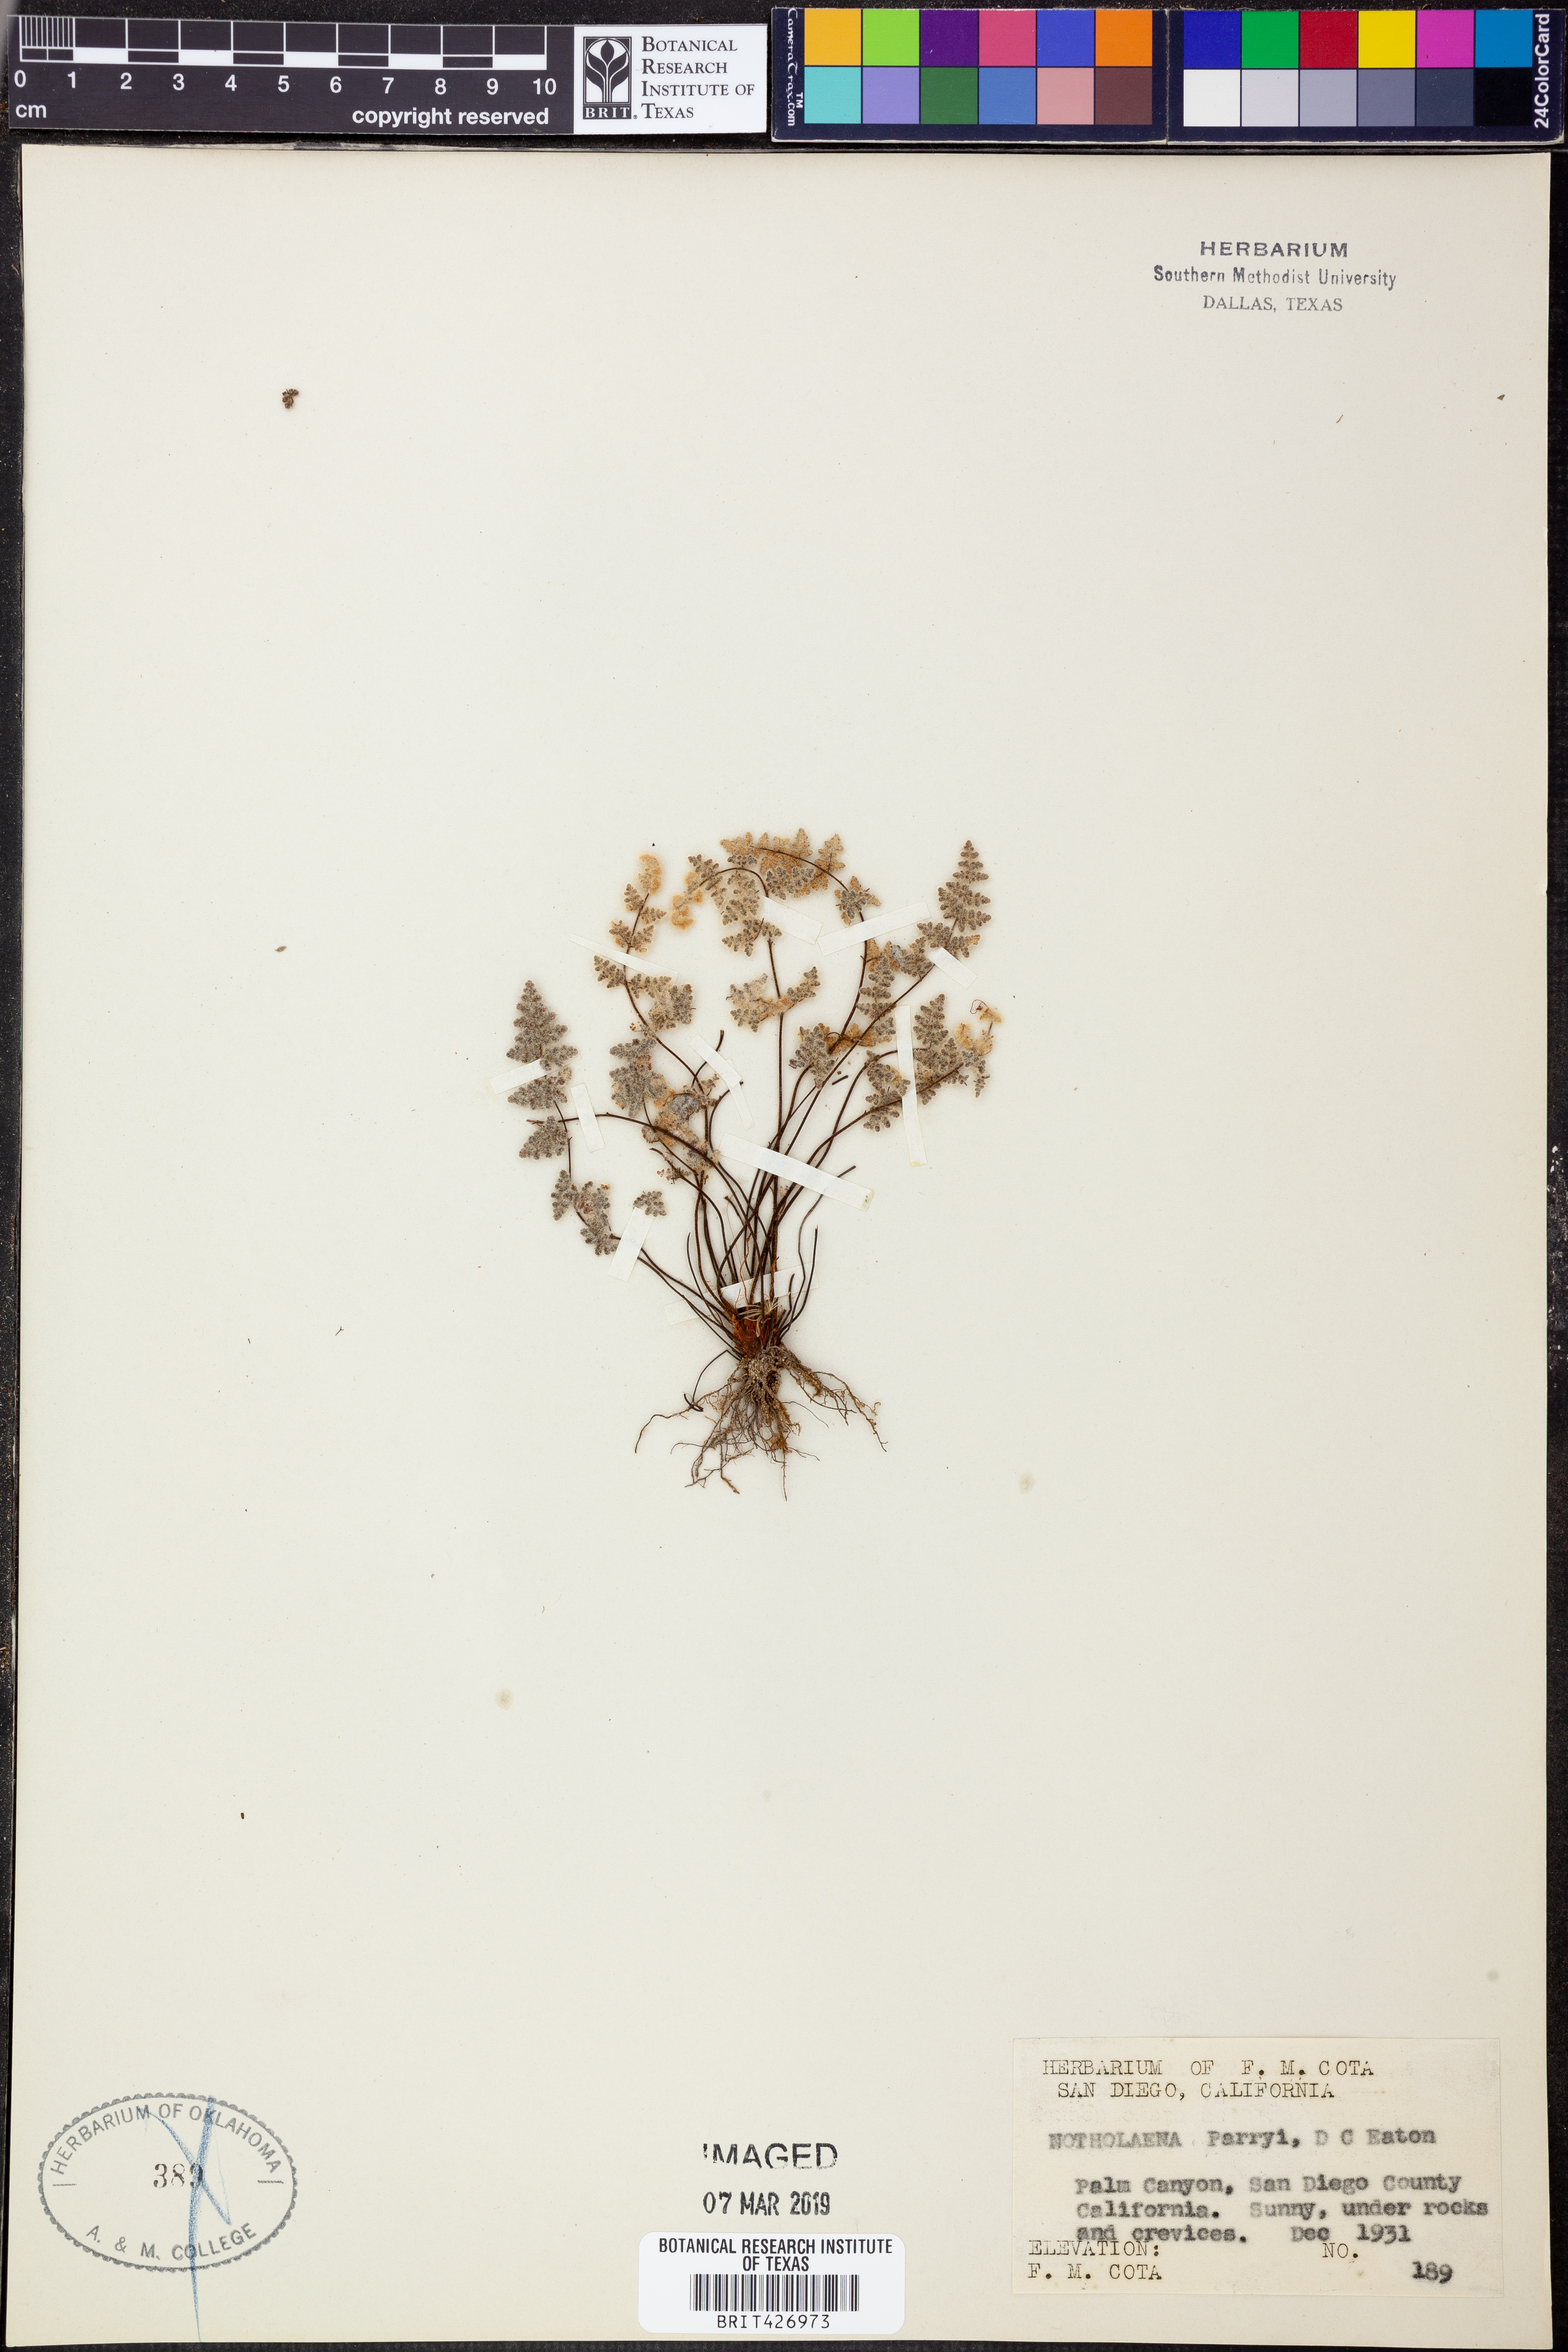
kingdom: Plantae
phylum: Tracheophyta
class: Polypodiopsida
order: Polypodiales
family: Pteridaceae
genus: Myriopteris
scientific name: Myriopteris parryi
